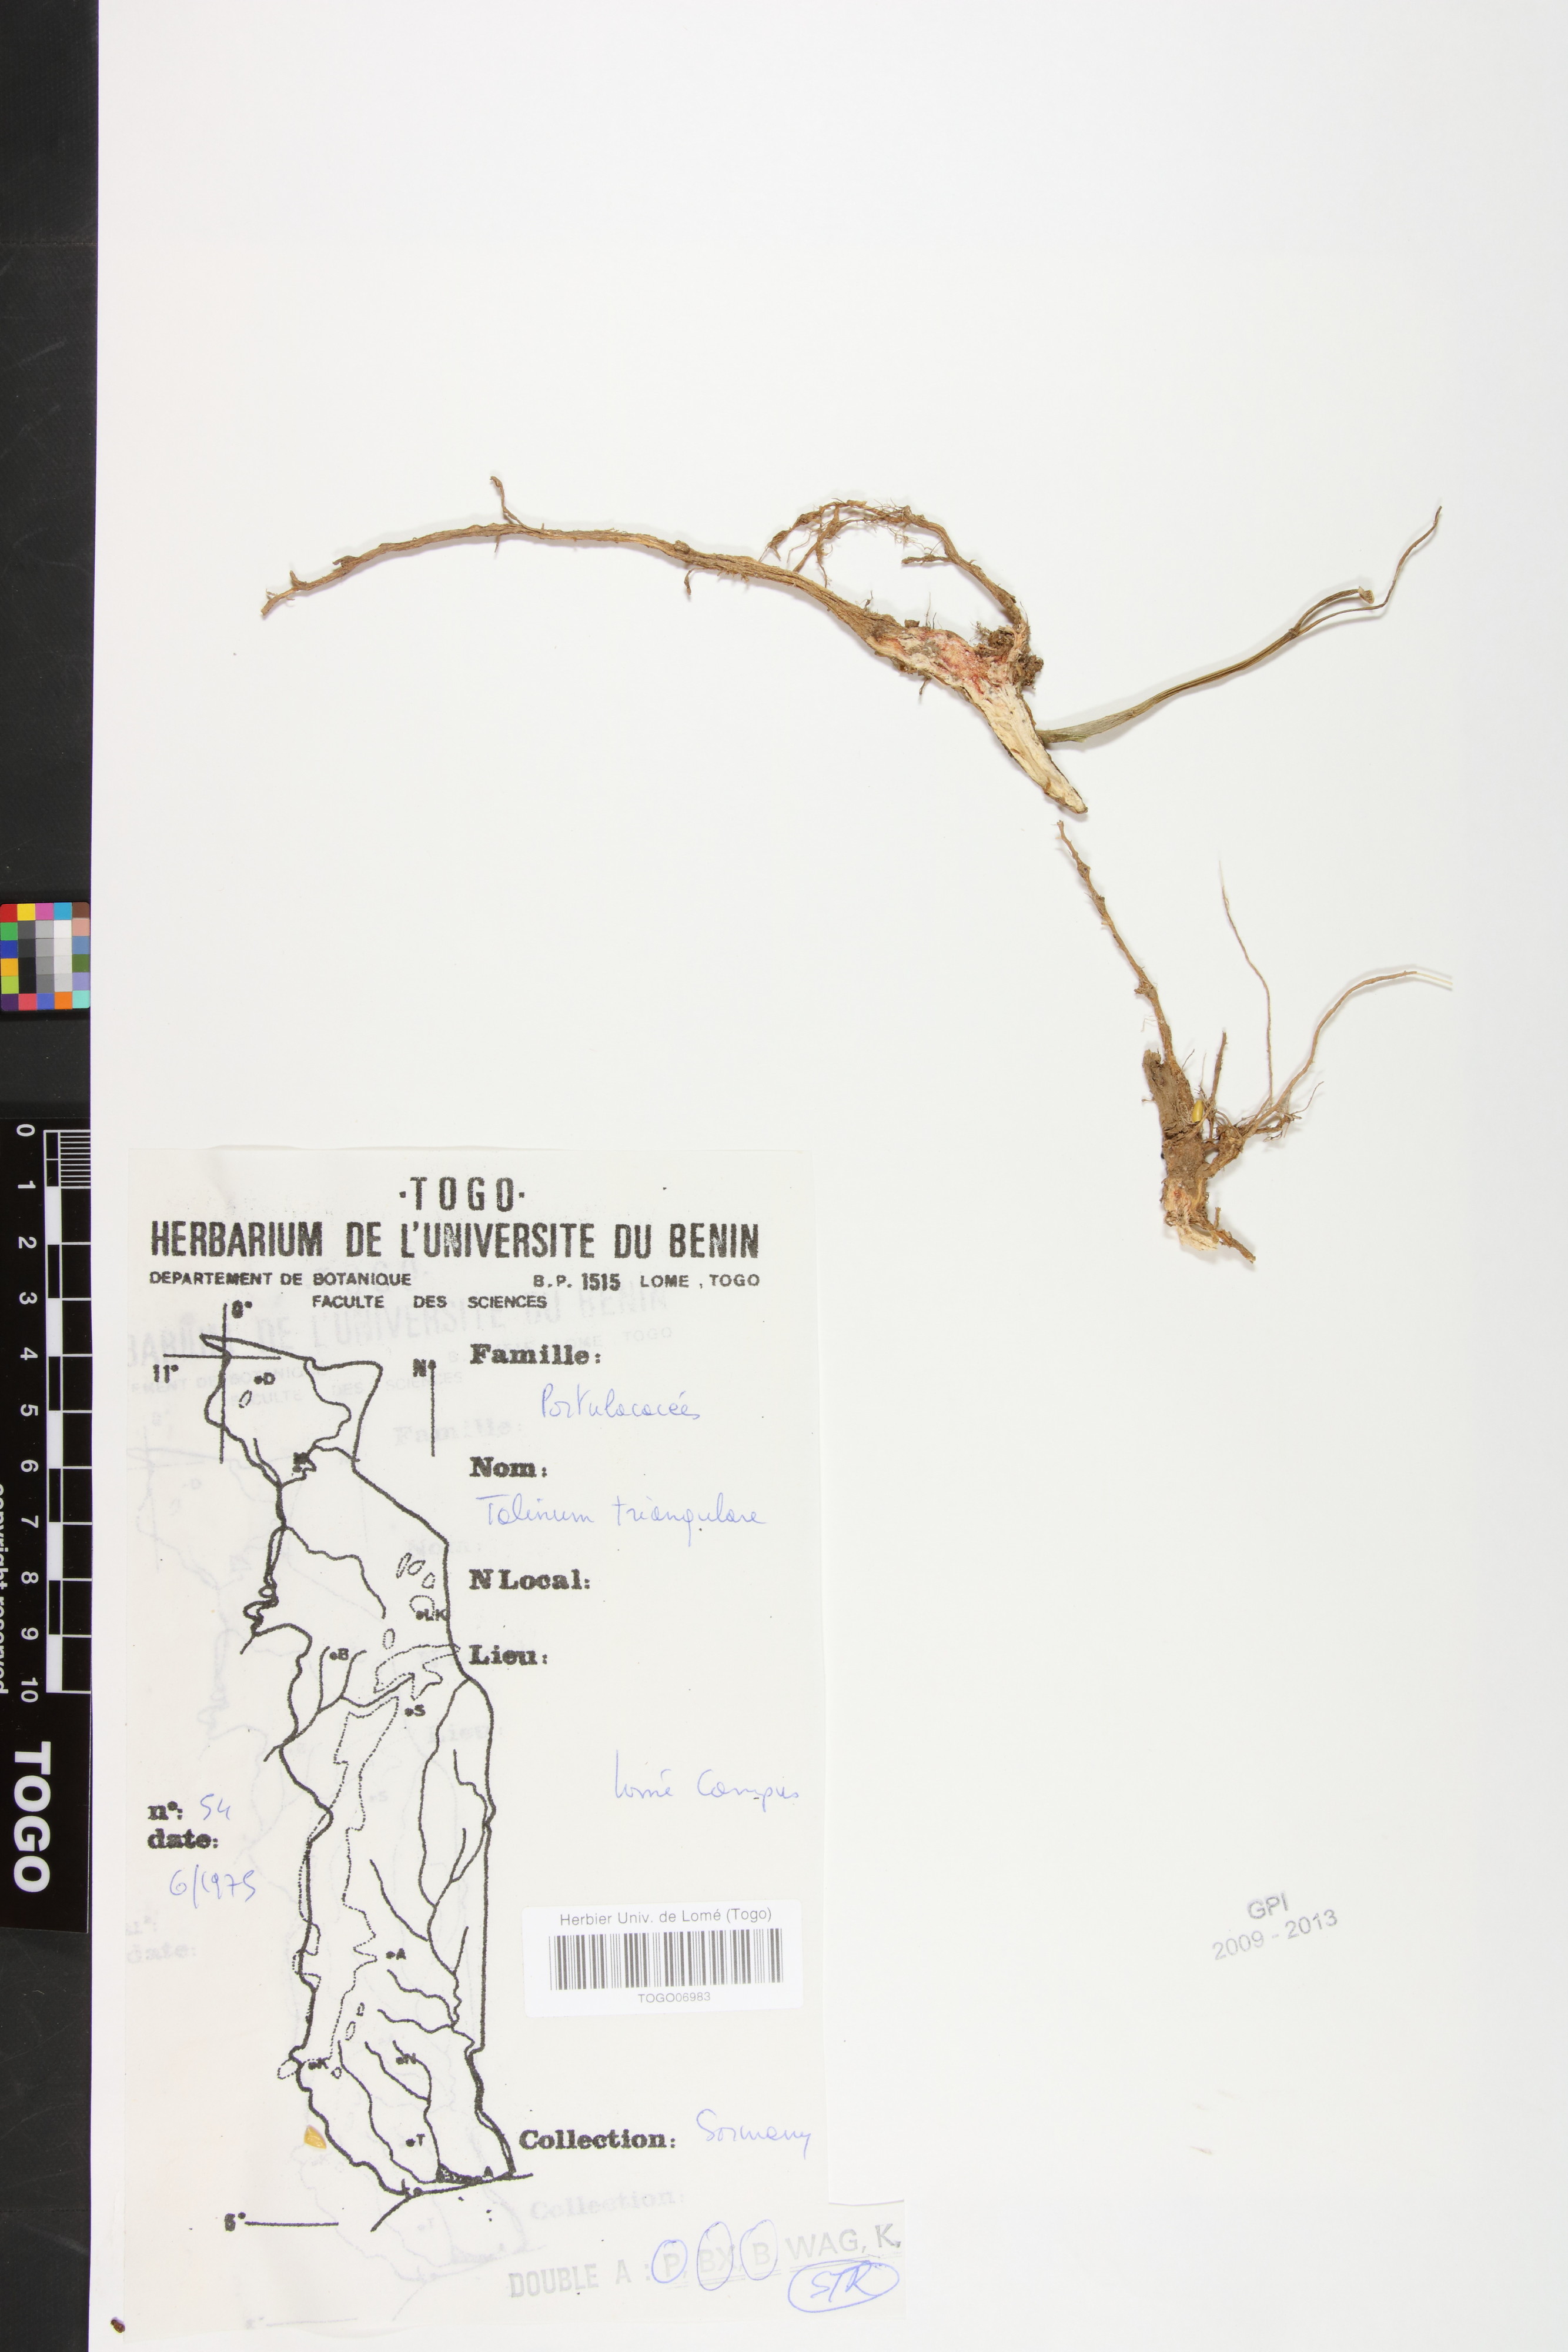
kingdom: Plantae
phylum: Tracheophyta
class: Magnoliopsida
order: Caryophyllales
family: Talinaceae
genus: Talinum
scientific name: Talinum fruticosum
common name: Verdolaga-francesa
